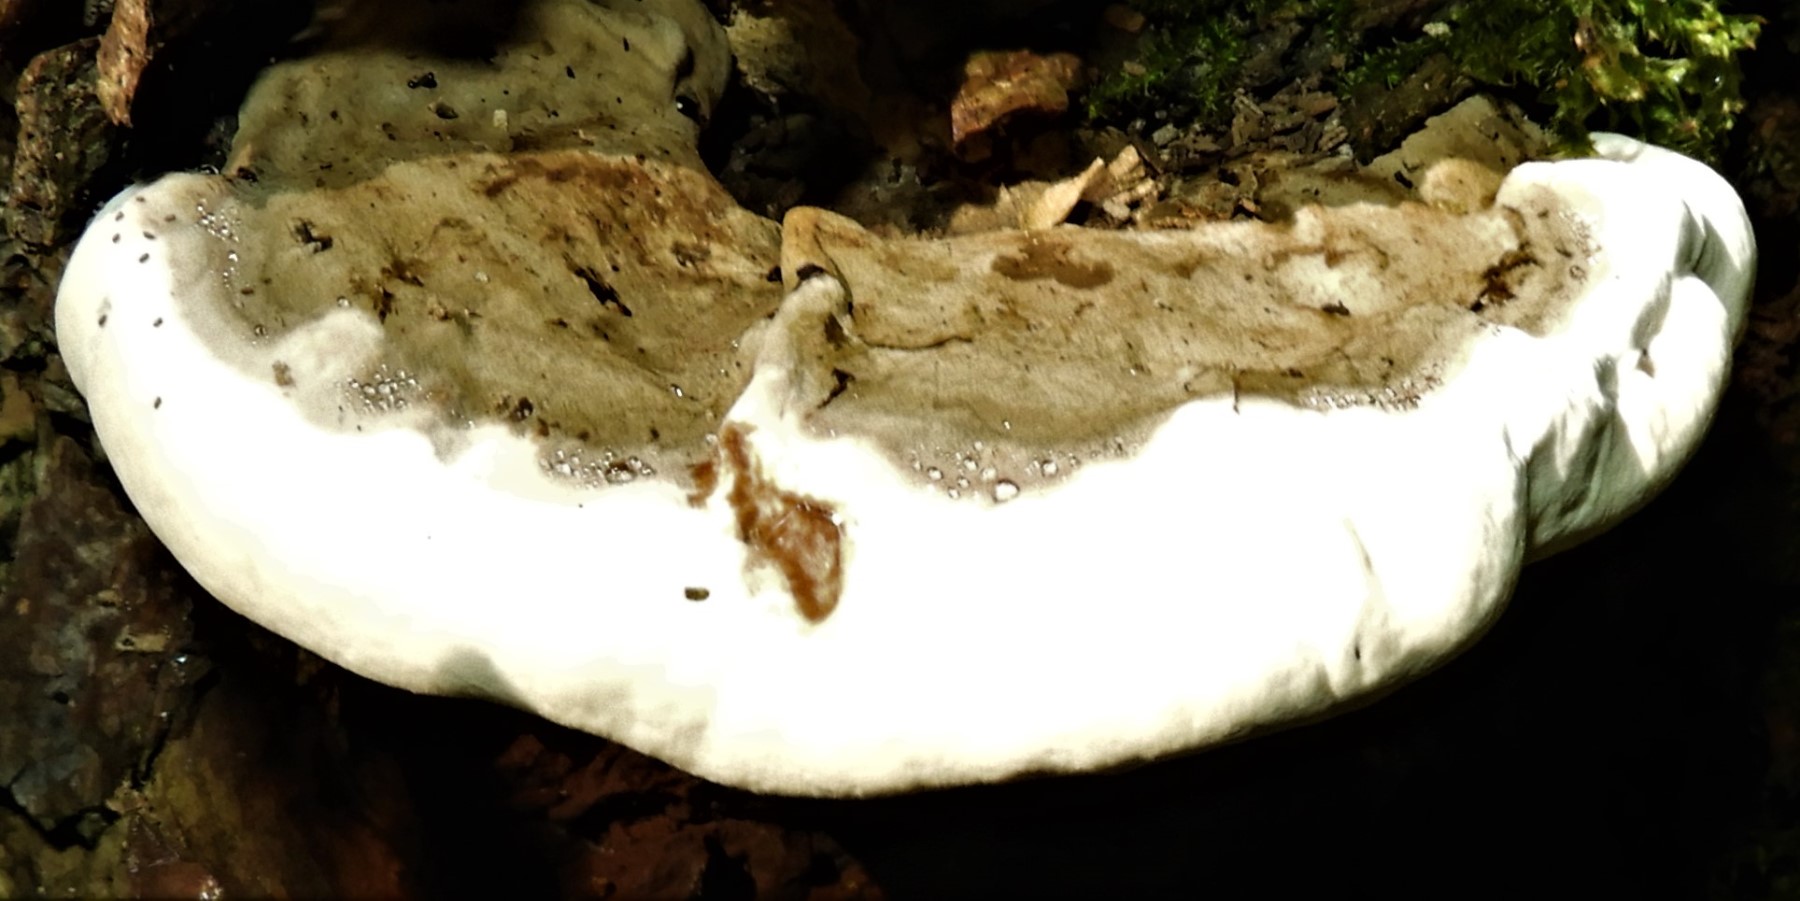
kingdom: Fungi
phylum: Basidiomycota
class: Agaricomycetes
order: Polyporales
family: Fomitopsidaceae
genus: Fomitopsis
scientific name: Fomitopsis pinicola
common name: randbæltet hovporesvamp
